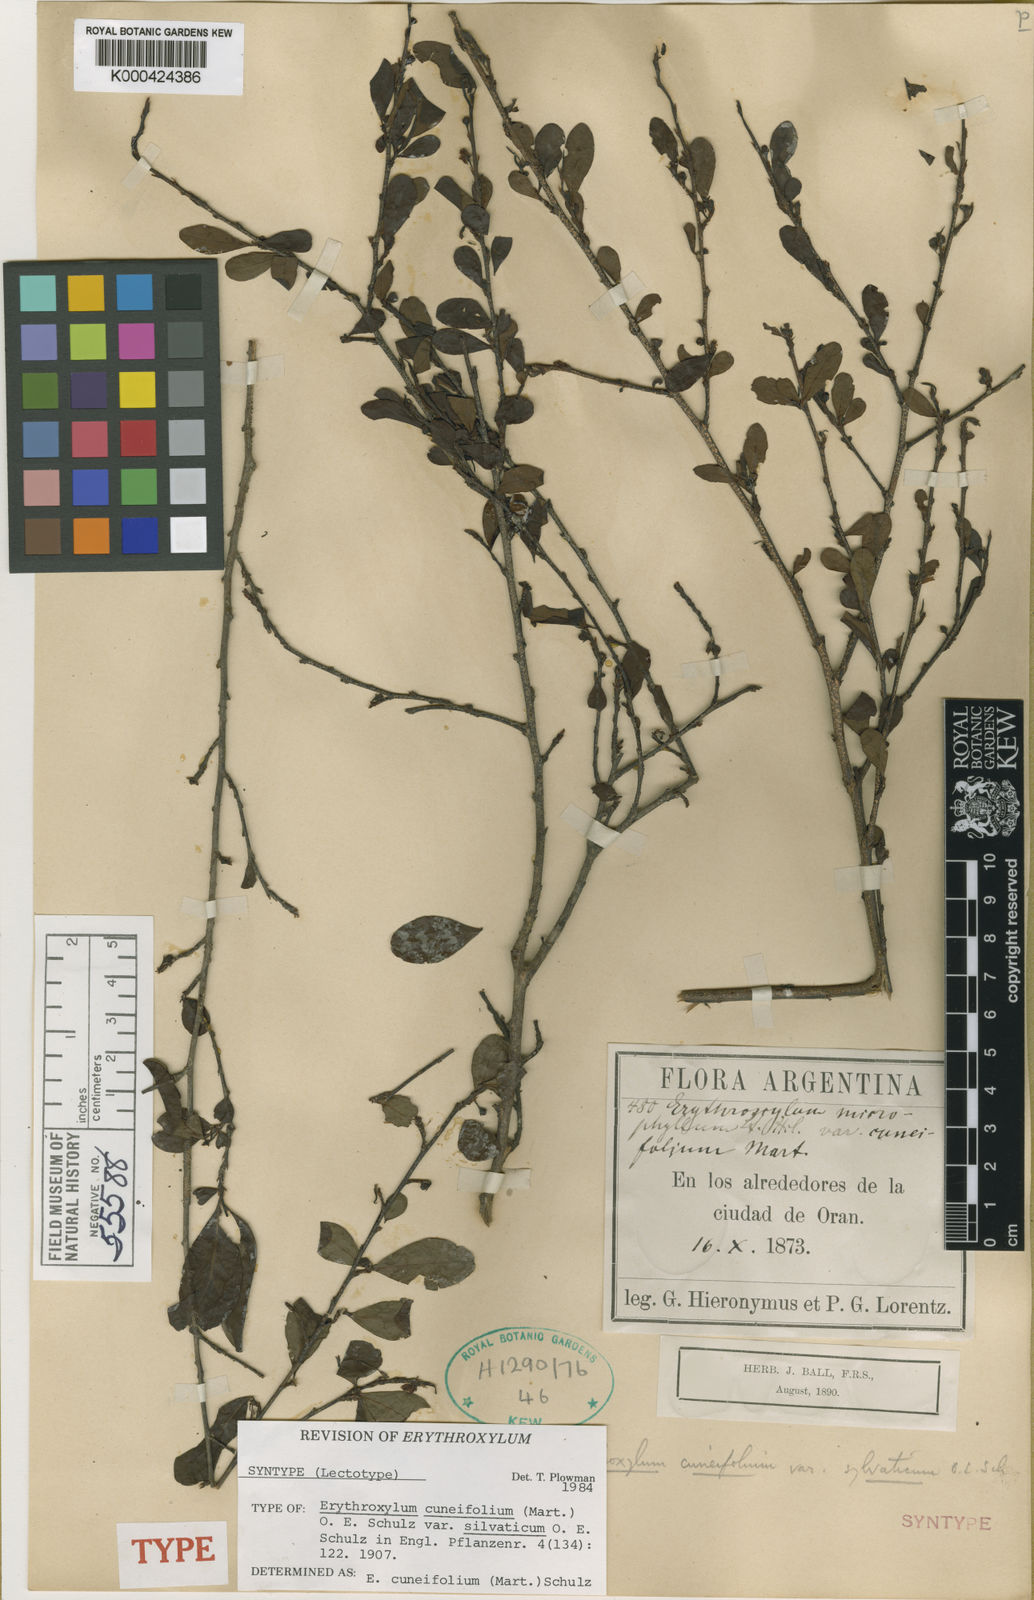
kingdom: Plantae
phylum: Tracheophyta
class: Magnoliopsida
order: Malpighiales
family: Erythroxylaceae
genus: Erythroxylum
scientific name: Erythroxylum cuneifolium
